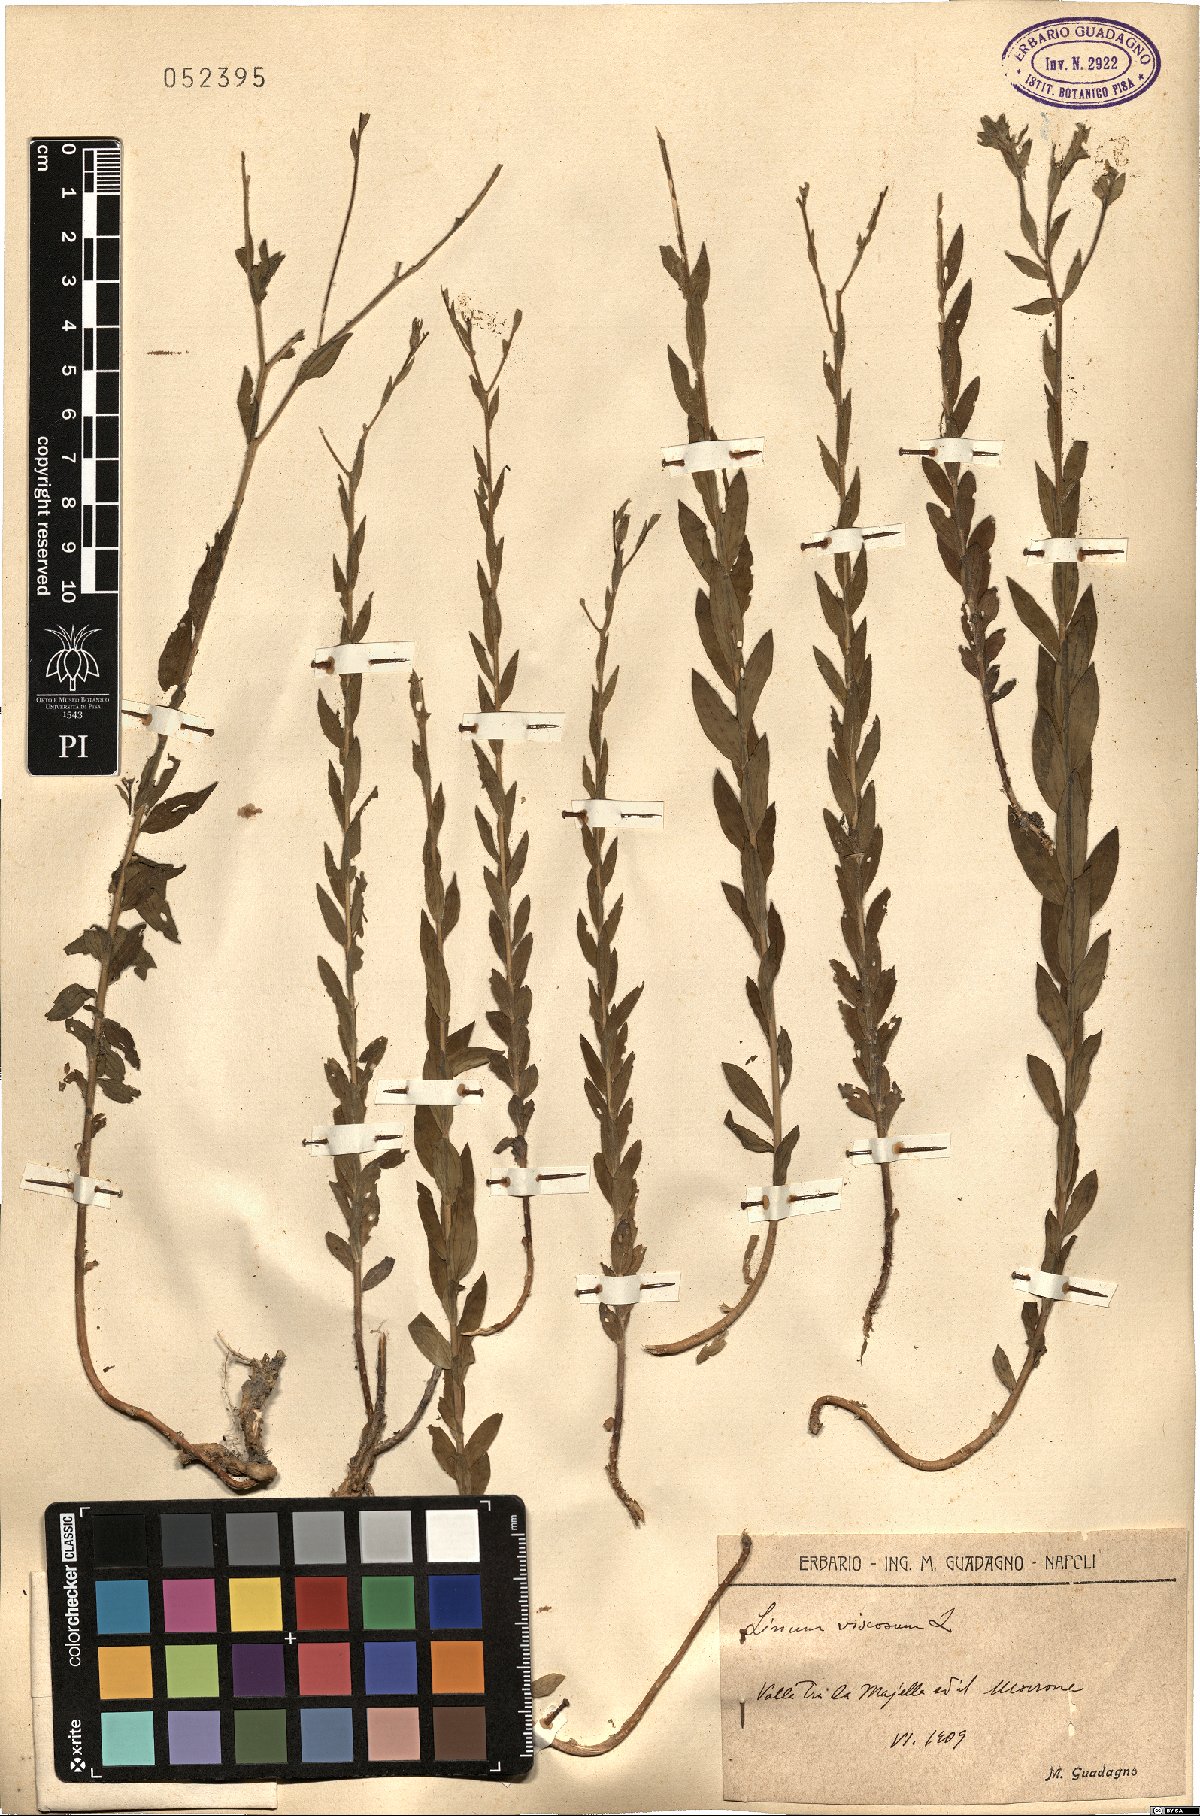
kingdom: Plantae
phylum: Tracheophyta
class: Magnoliopsida
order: Malpighiales
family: Linaceae
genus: Linum
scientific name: Linum viscosum
